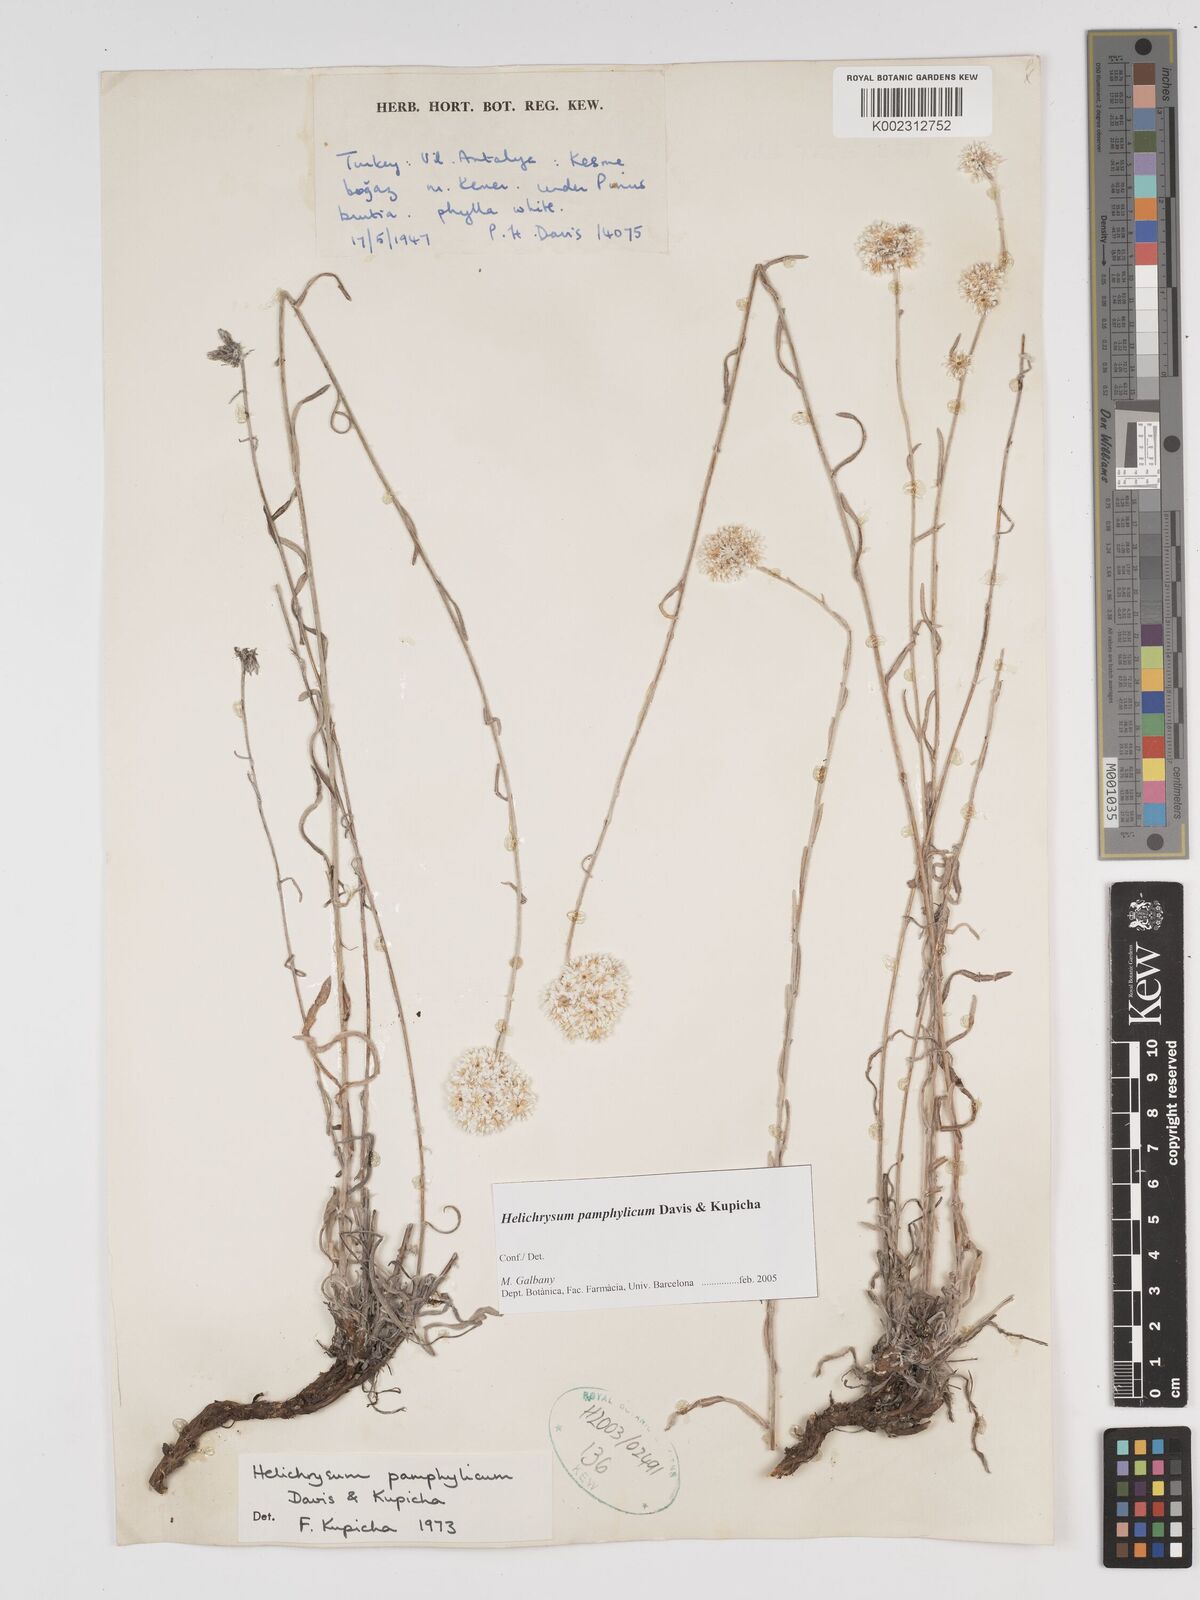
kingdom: Plantae
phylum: Tracheophyta
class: Magnoliopsida
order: Asterales
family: Asteraceae
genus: Helichrysum
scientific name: Helichrysum pamphylicum
